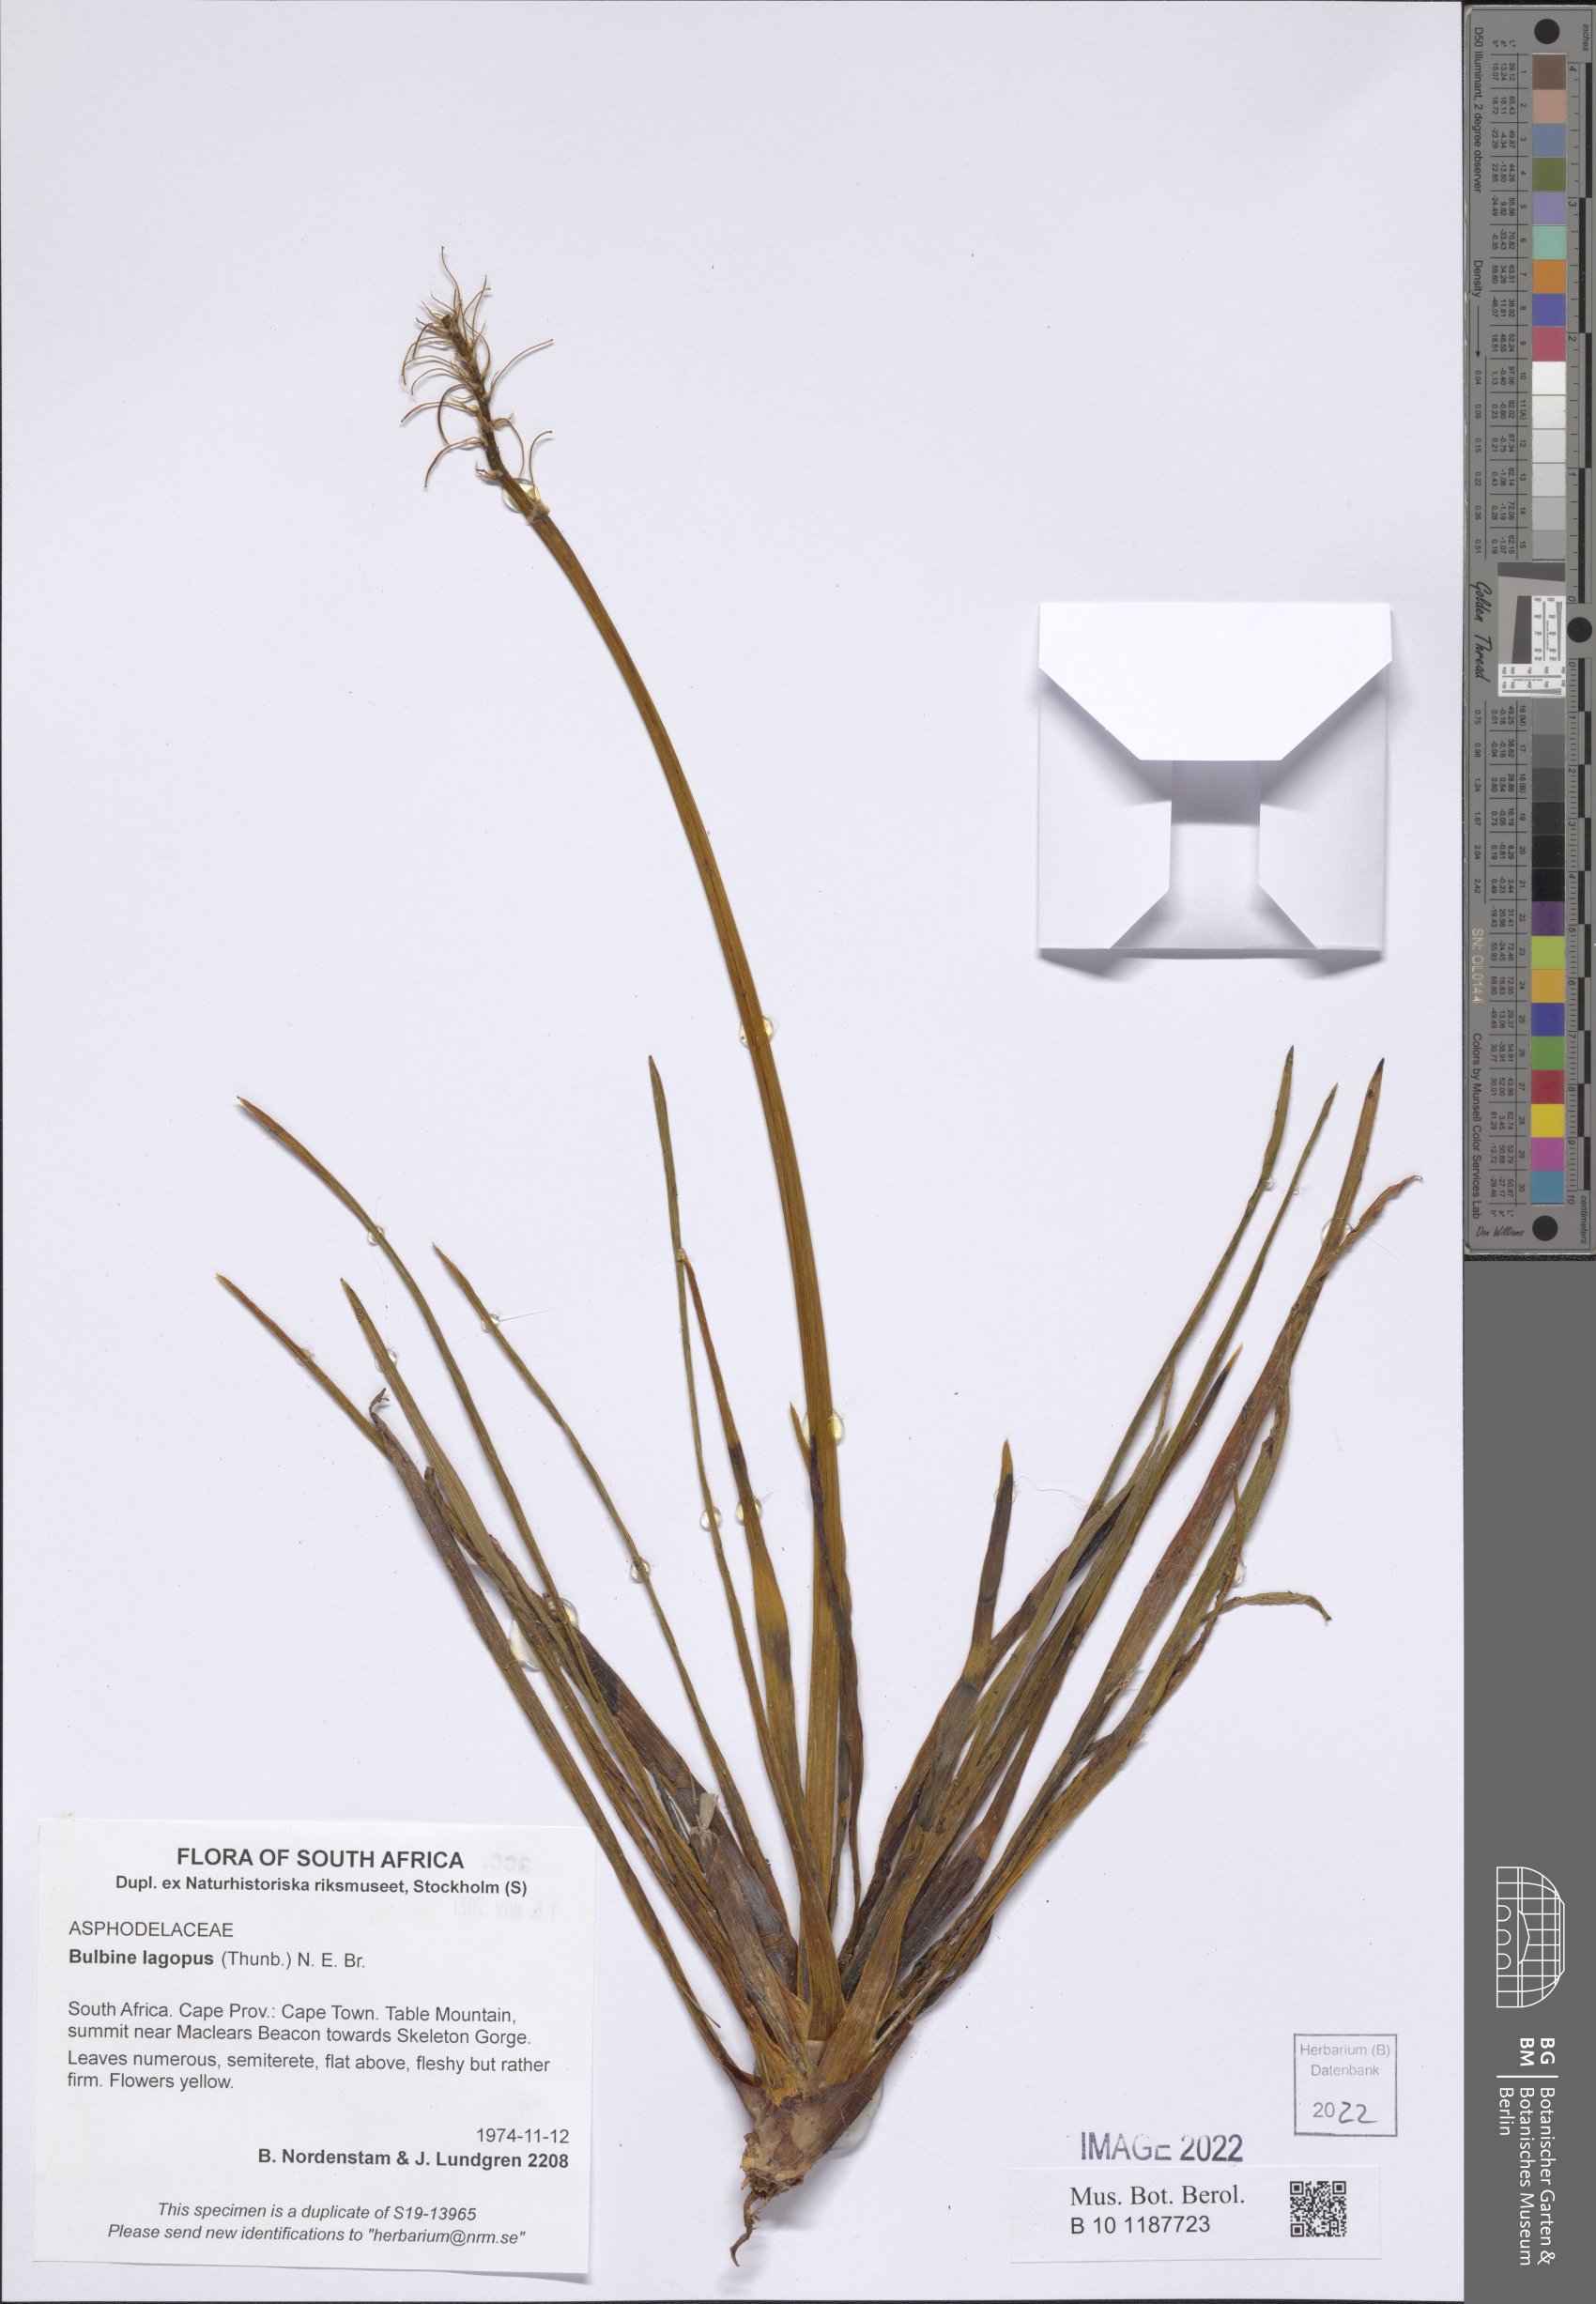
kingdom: Plantae
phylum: Tracheophyta
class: Liliopsida
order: Asparagales
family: Asphodelaceae
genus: Bulbine
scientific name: Bulbine lagopus
